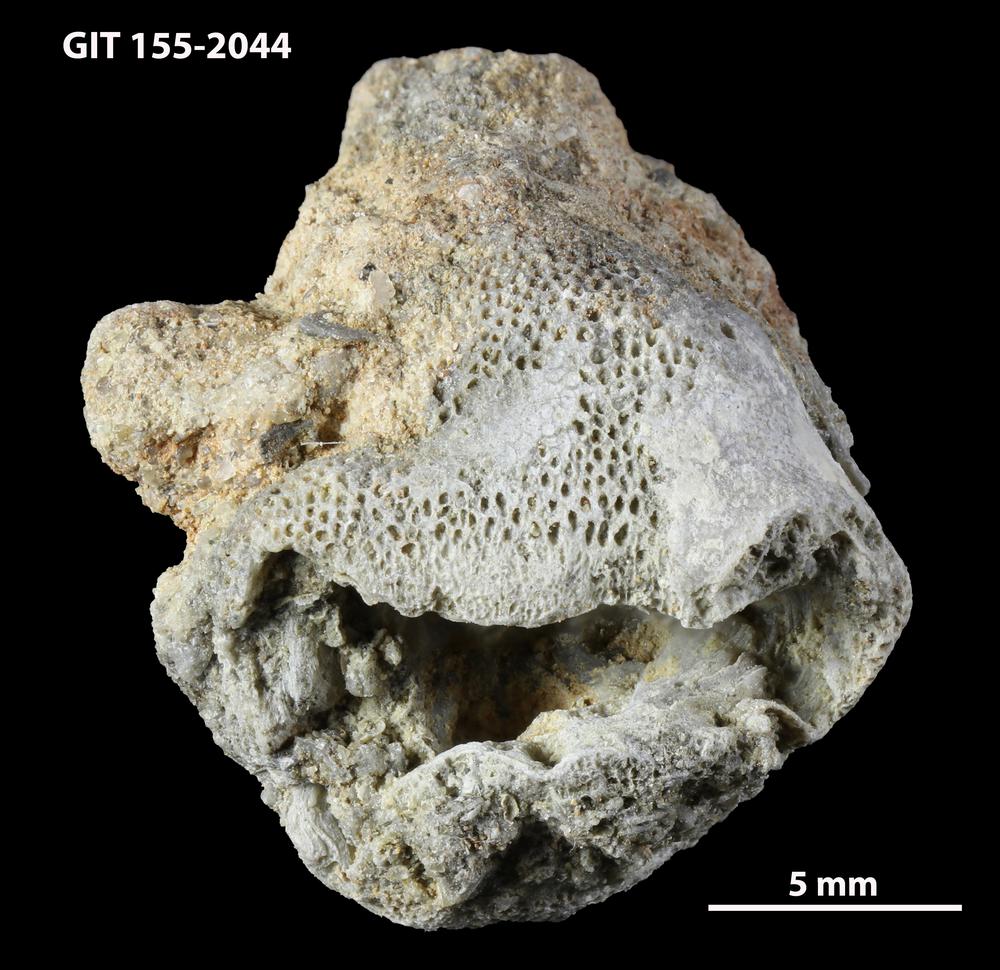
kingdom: Animalia
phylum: Bryozoa
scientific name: Bryozoa
